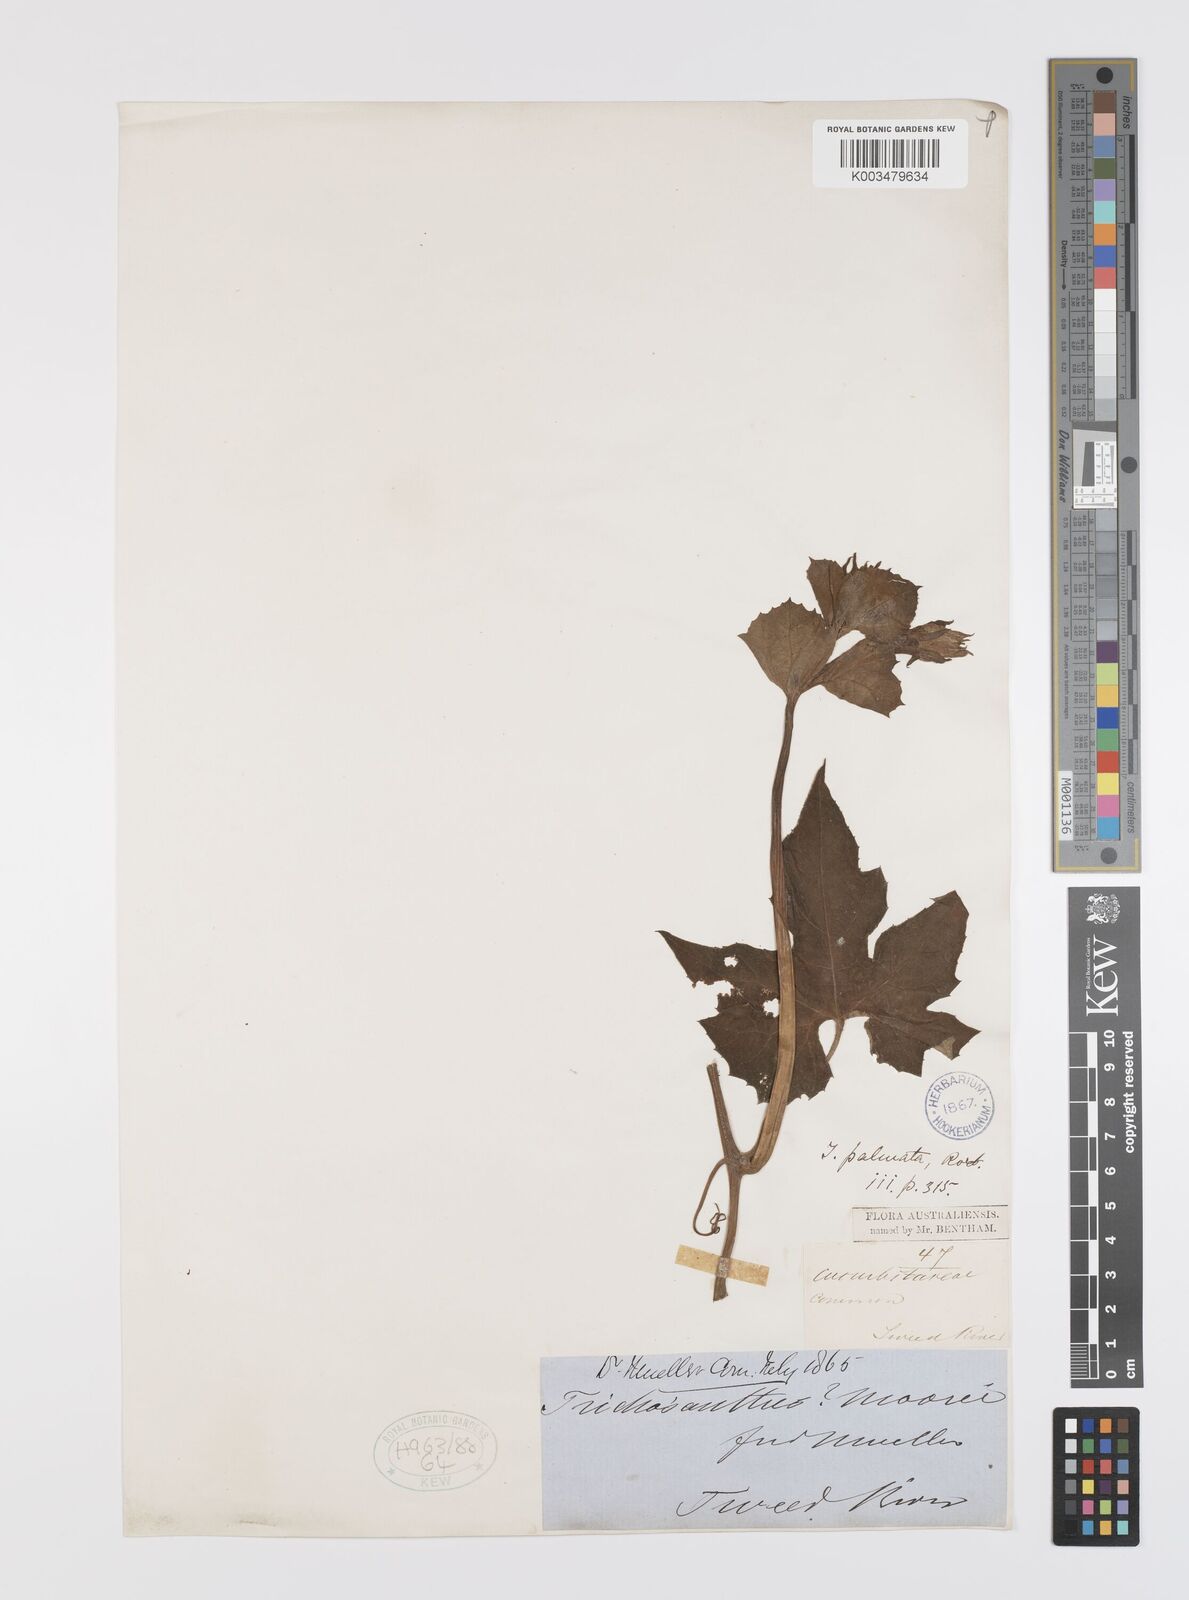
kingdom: Plantae
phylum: Tracheophyta
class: Magnoliopsida
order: Cucurbitales
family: Cucurbitaceae
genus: Trichosanthes
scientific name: Trichosanthes cucumerina
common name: Snakegourd
